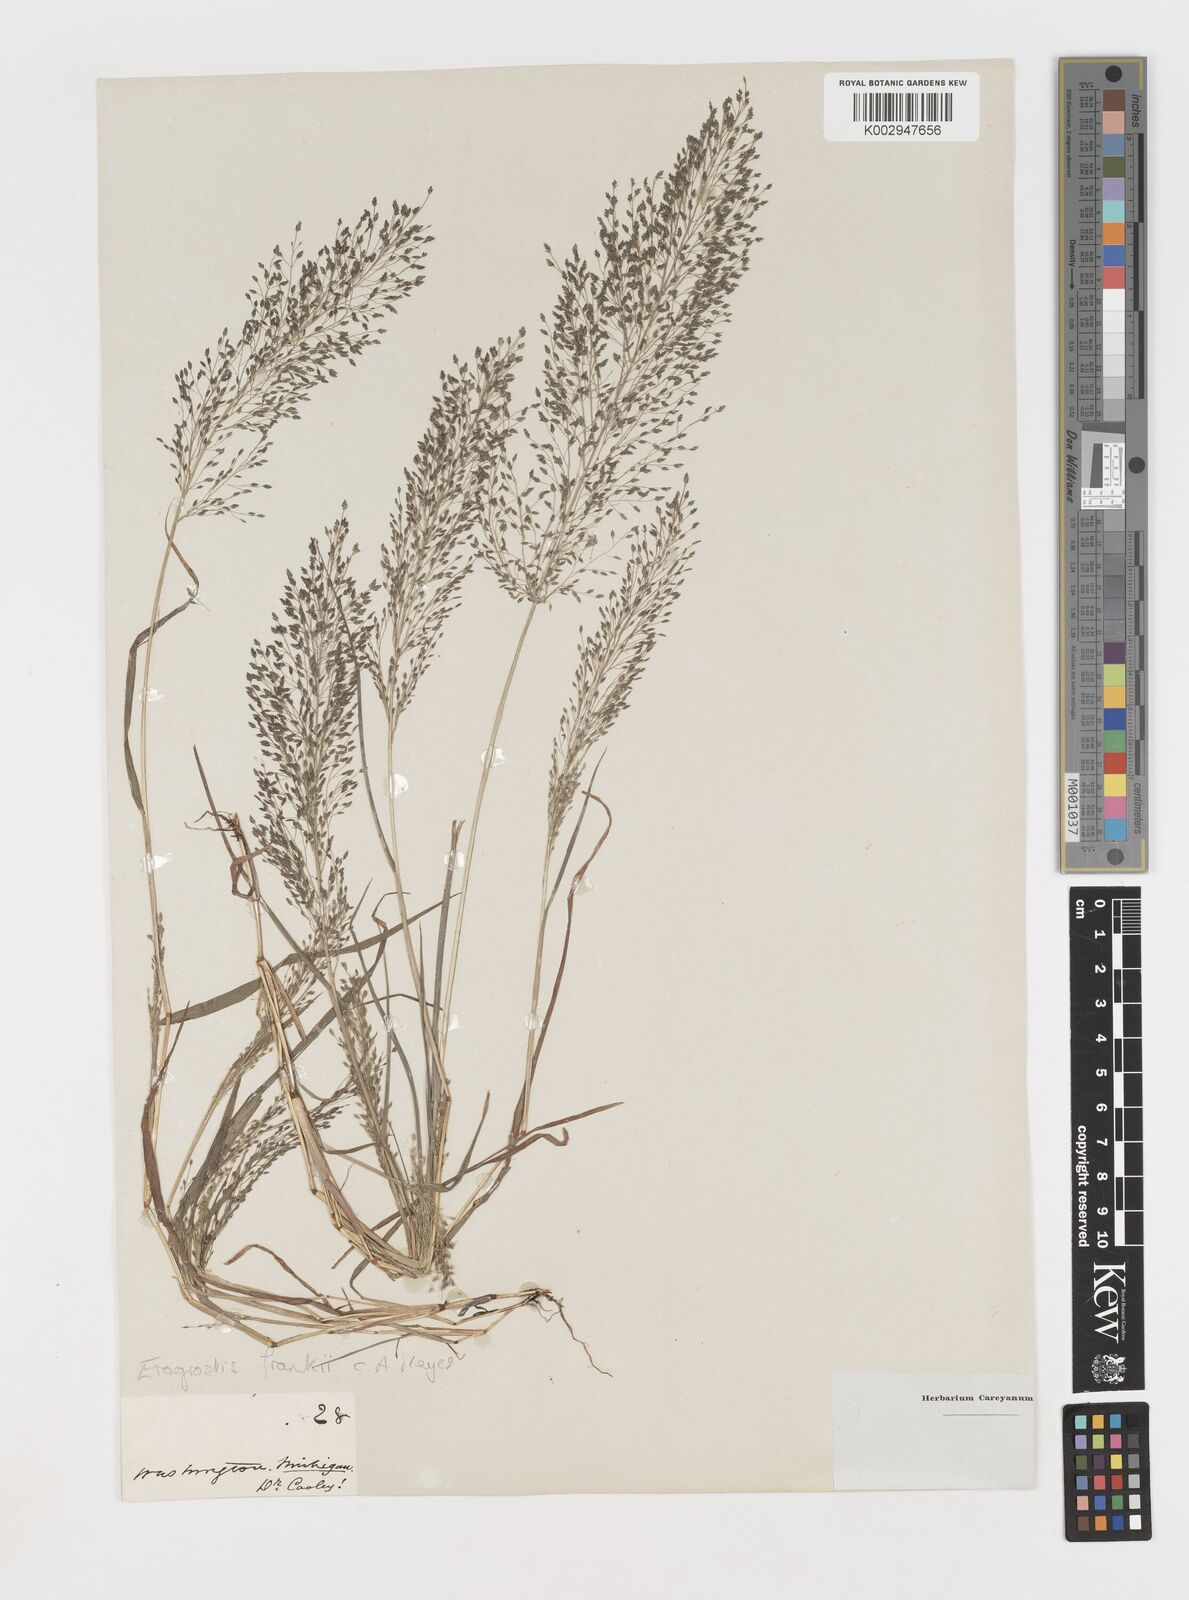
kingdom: Plantae
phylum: Tracheophyta
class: Liliopsida
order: Poales
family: Poaceae
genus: Eragrostis
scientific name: Eragrostis frankii
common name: Frank's lovegrass
